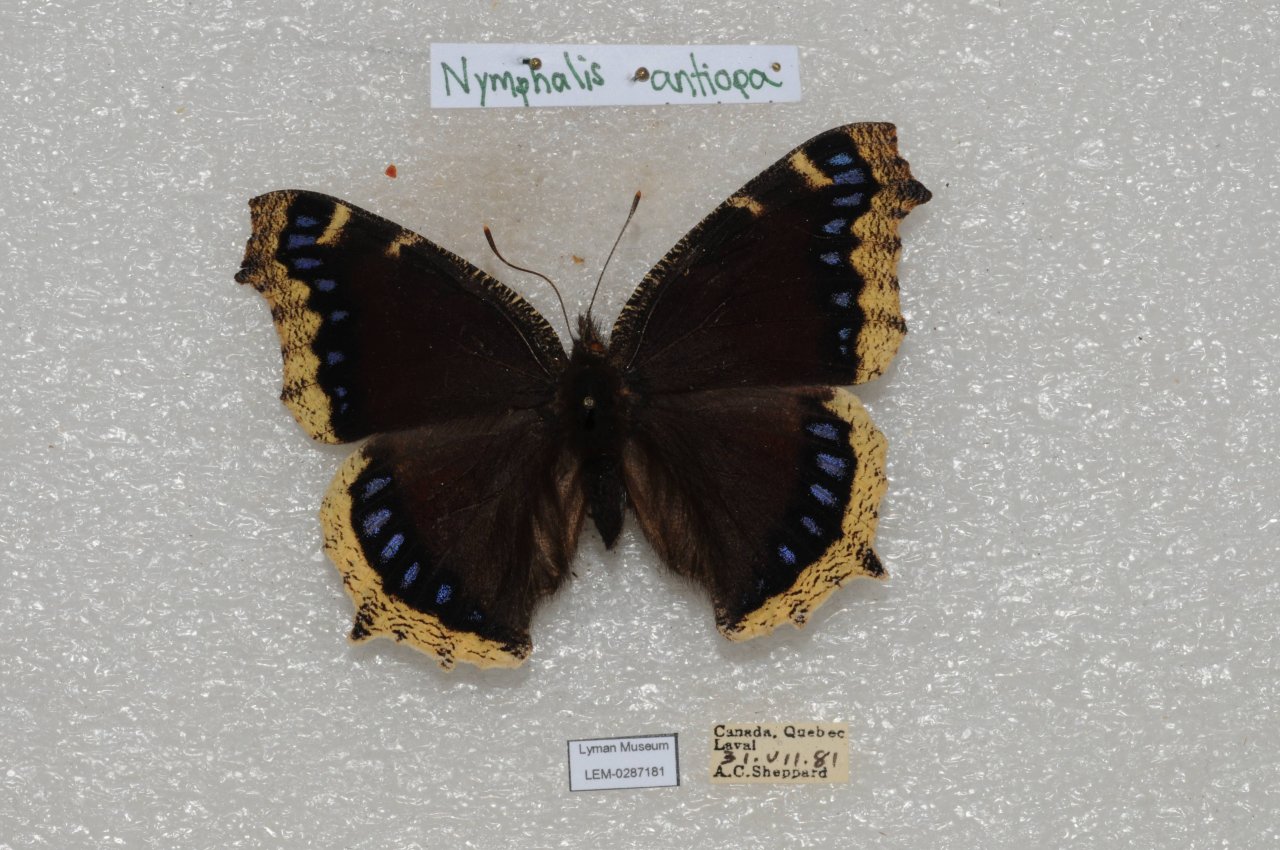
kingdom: Animalia
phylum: Arthropoda
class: Insecta
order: Lepidoptera
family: Nymphalidae
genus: Nymphalis
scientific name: Nymphalis antiopa
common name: Mourning Cloak
